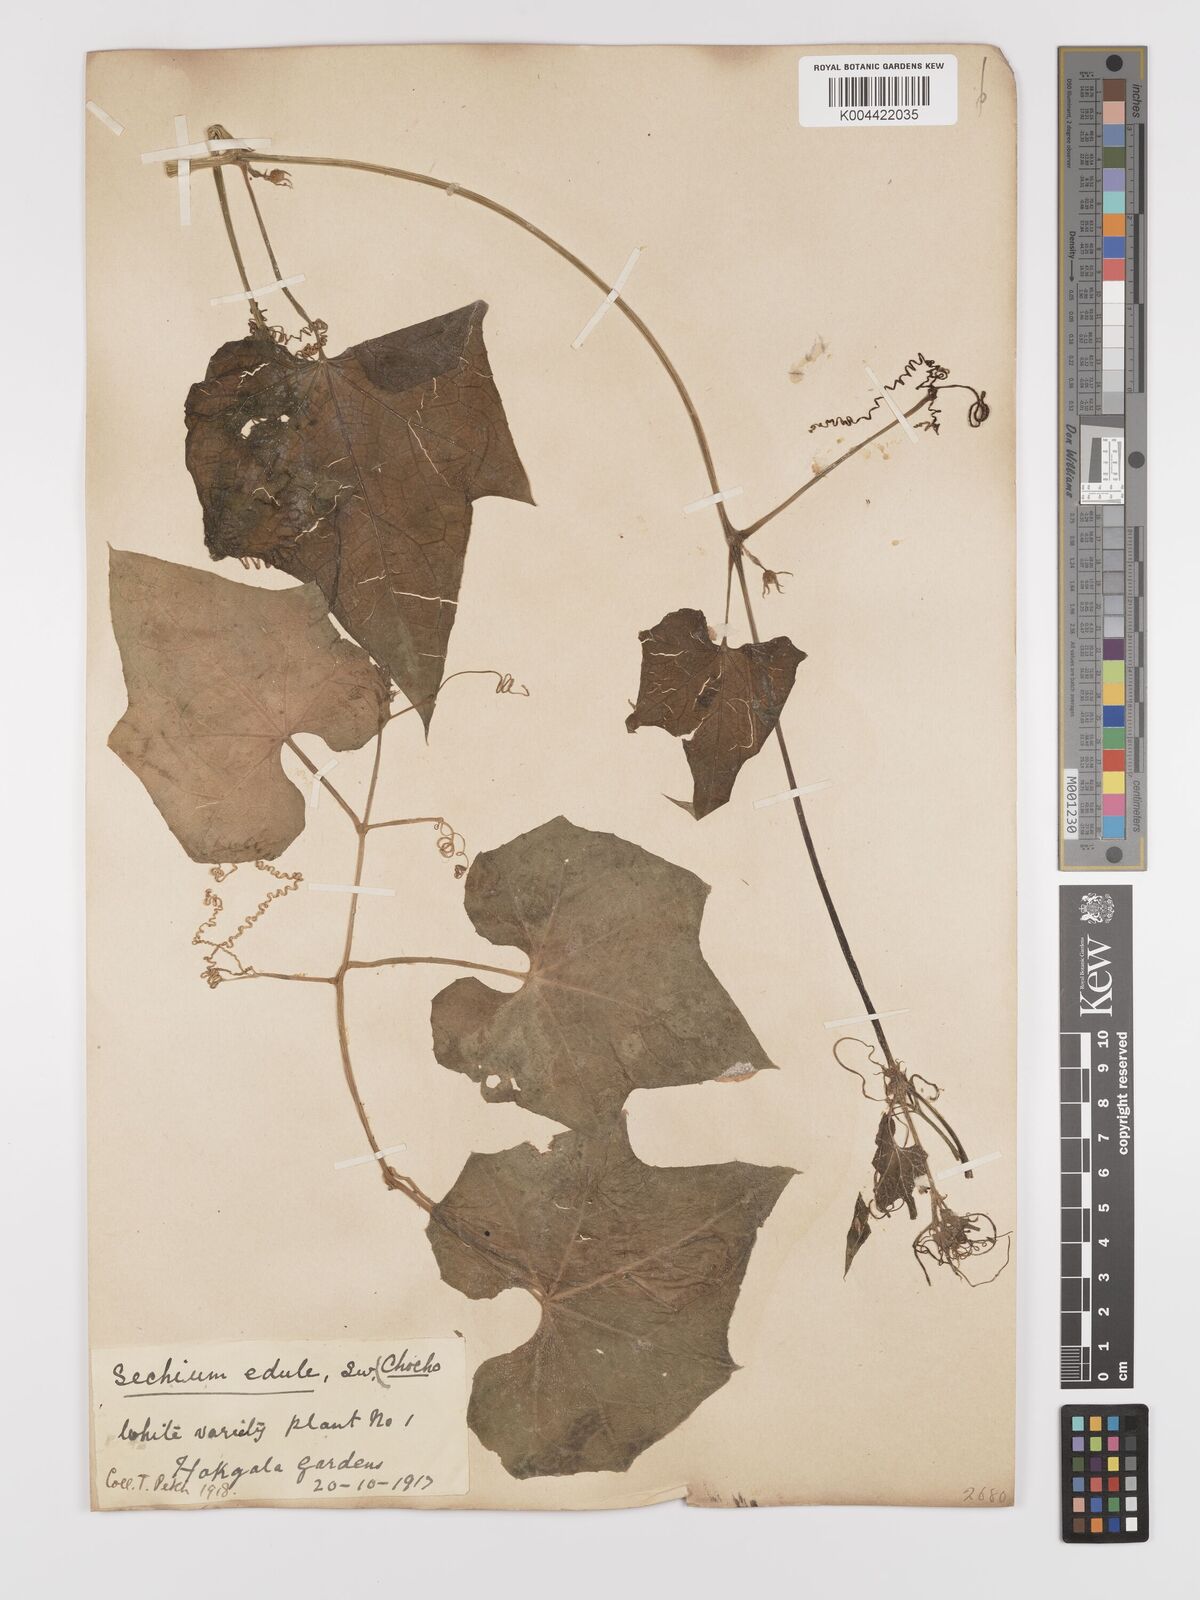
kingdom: Plantae
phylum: Tracheophyta
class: Magnoliopsida
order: Cucurbitales
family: Cucurbitaceae
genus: Sechium
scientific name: Sechium edule
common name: Chayote
